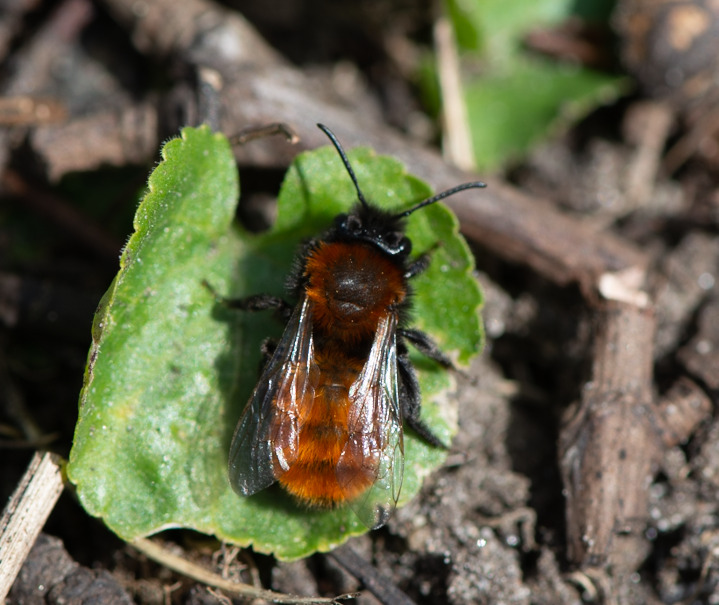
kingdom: Animalia
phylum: Arthropoda
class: Insecta
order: Hymenoptera
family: Andrenidae
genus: Andrena
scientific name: Andrena fulva
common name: Rødpelset jordbi
